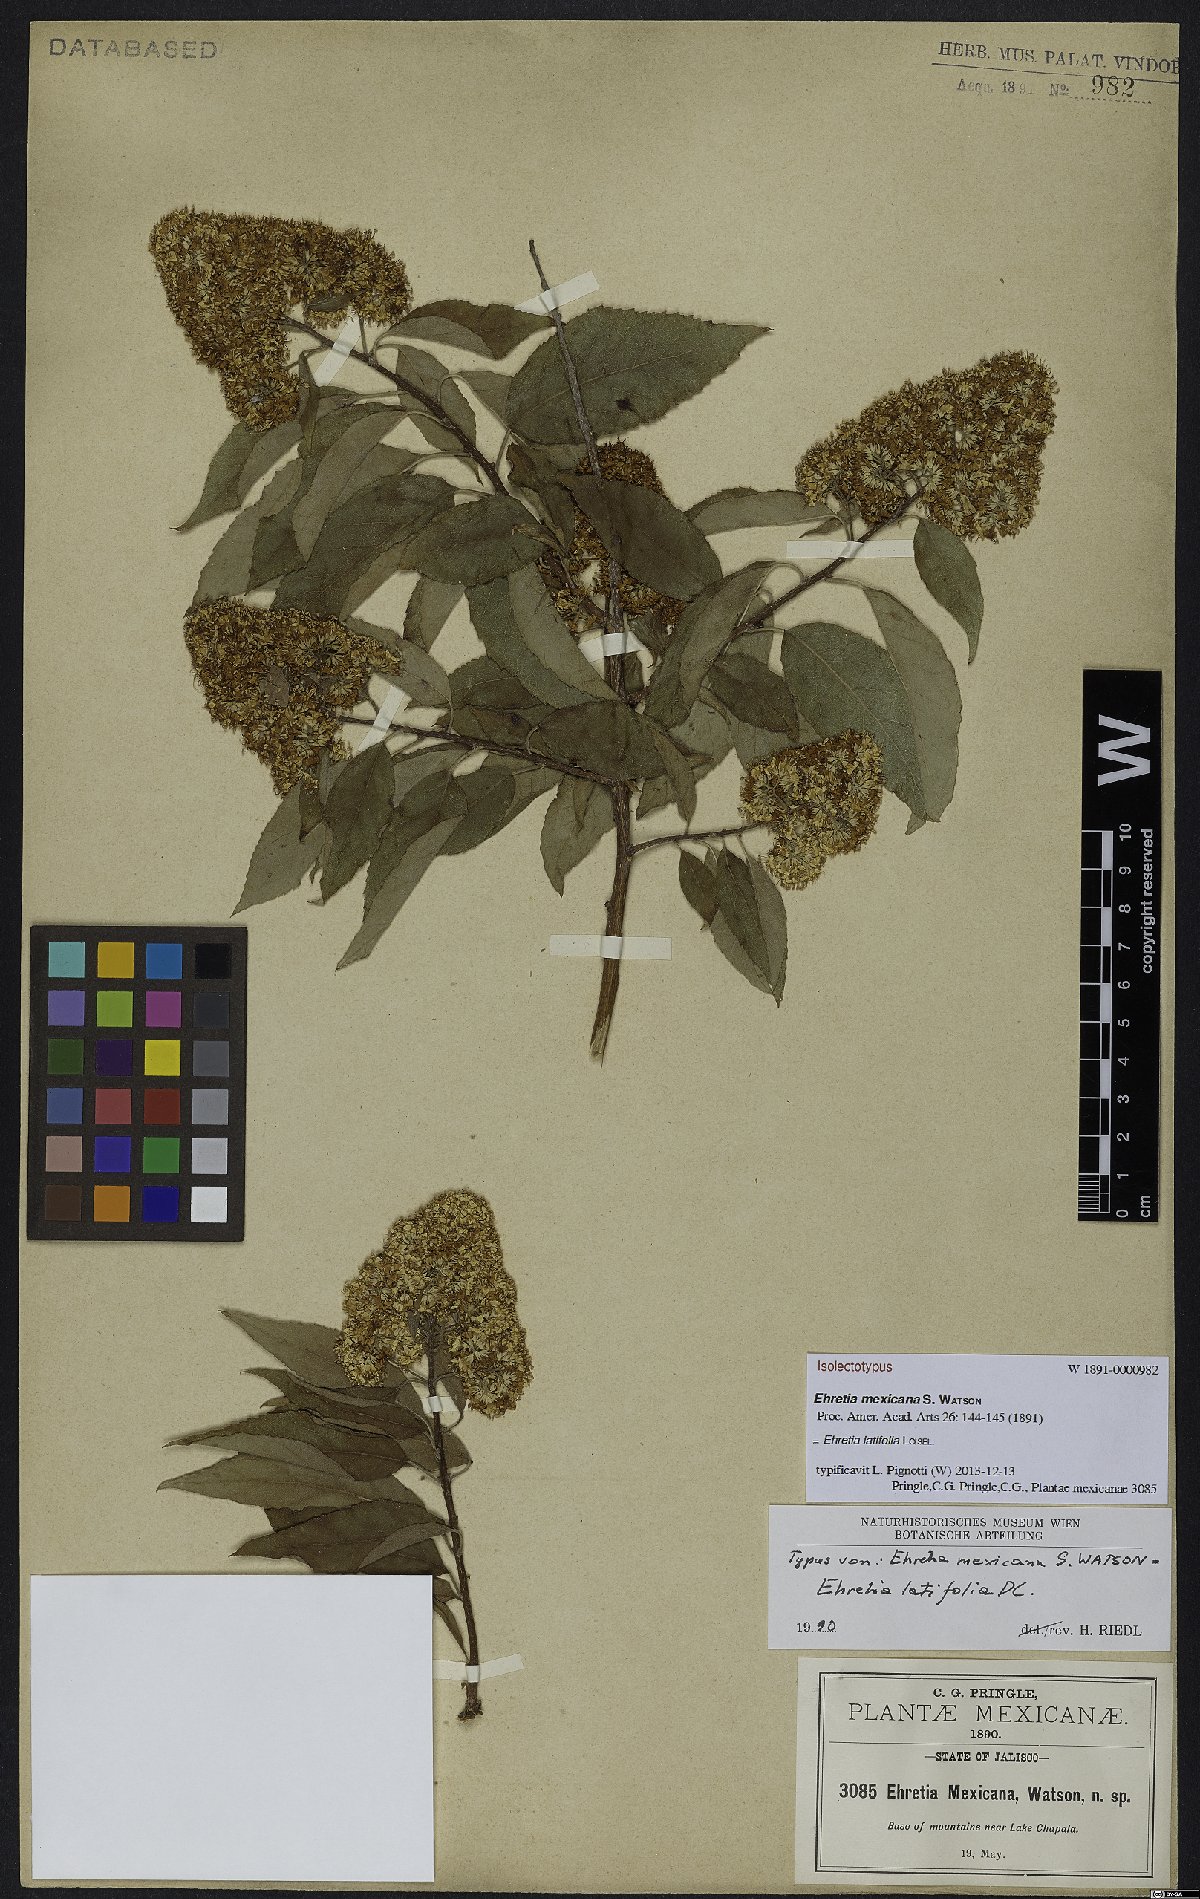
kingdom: Plantae
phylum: Tracheophyta
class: Magnoliopsida
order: Boraginales
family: Ehretiaceae
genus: Ehretia
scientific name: Ehretia latifolia
